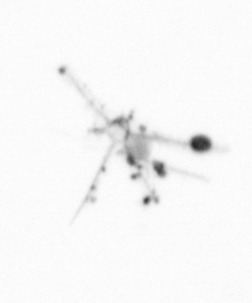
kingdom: Chromista
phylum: Ochrophyta
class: Bacillariophyceae
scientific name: Bacillariophyceae
